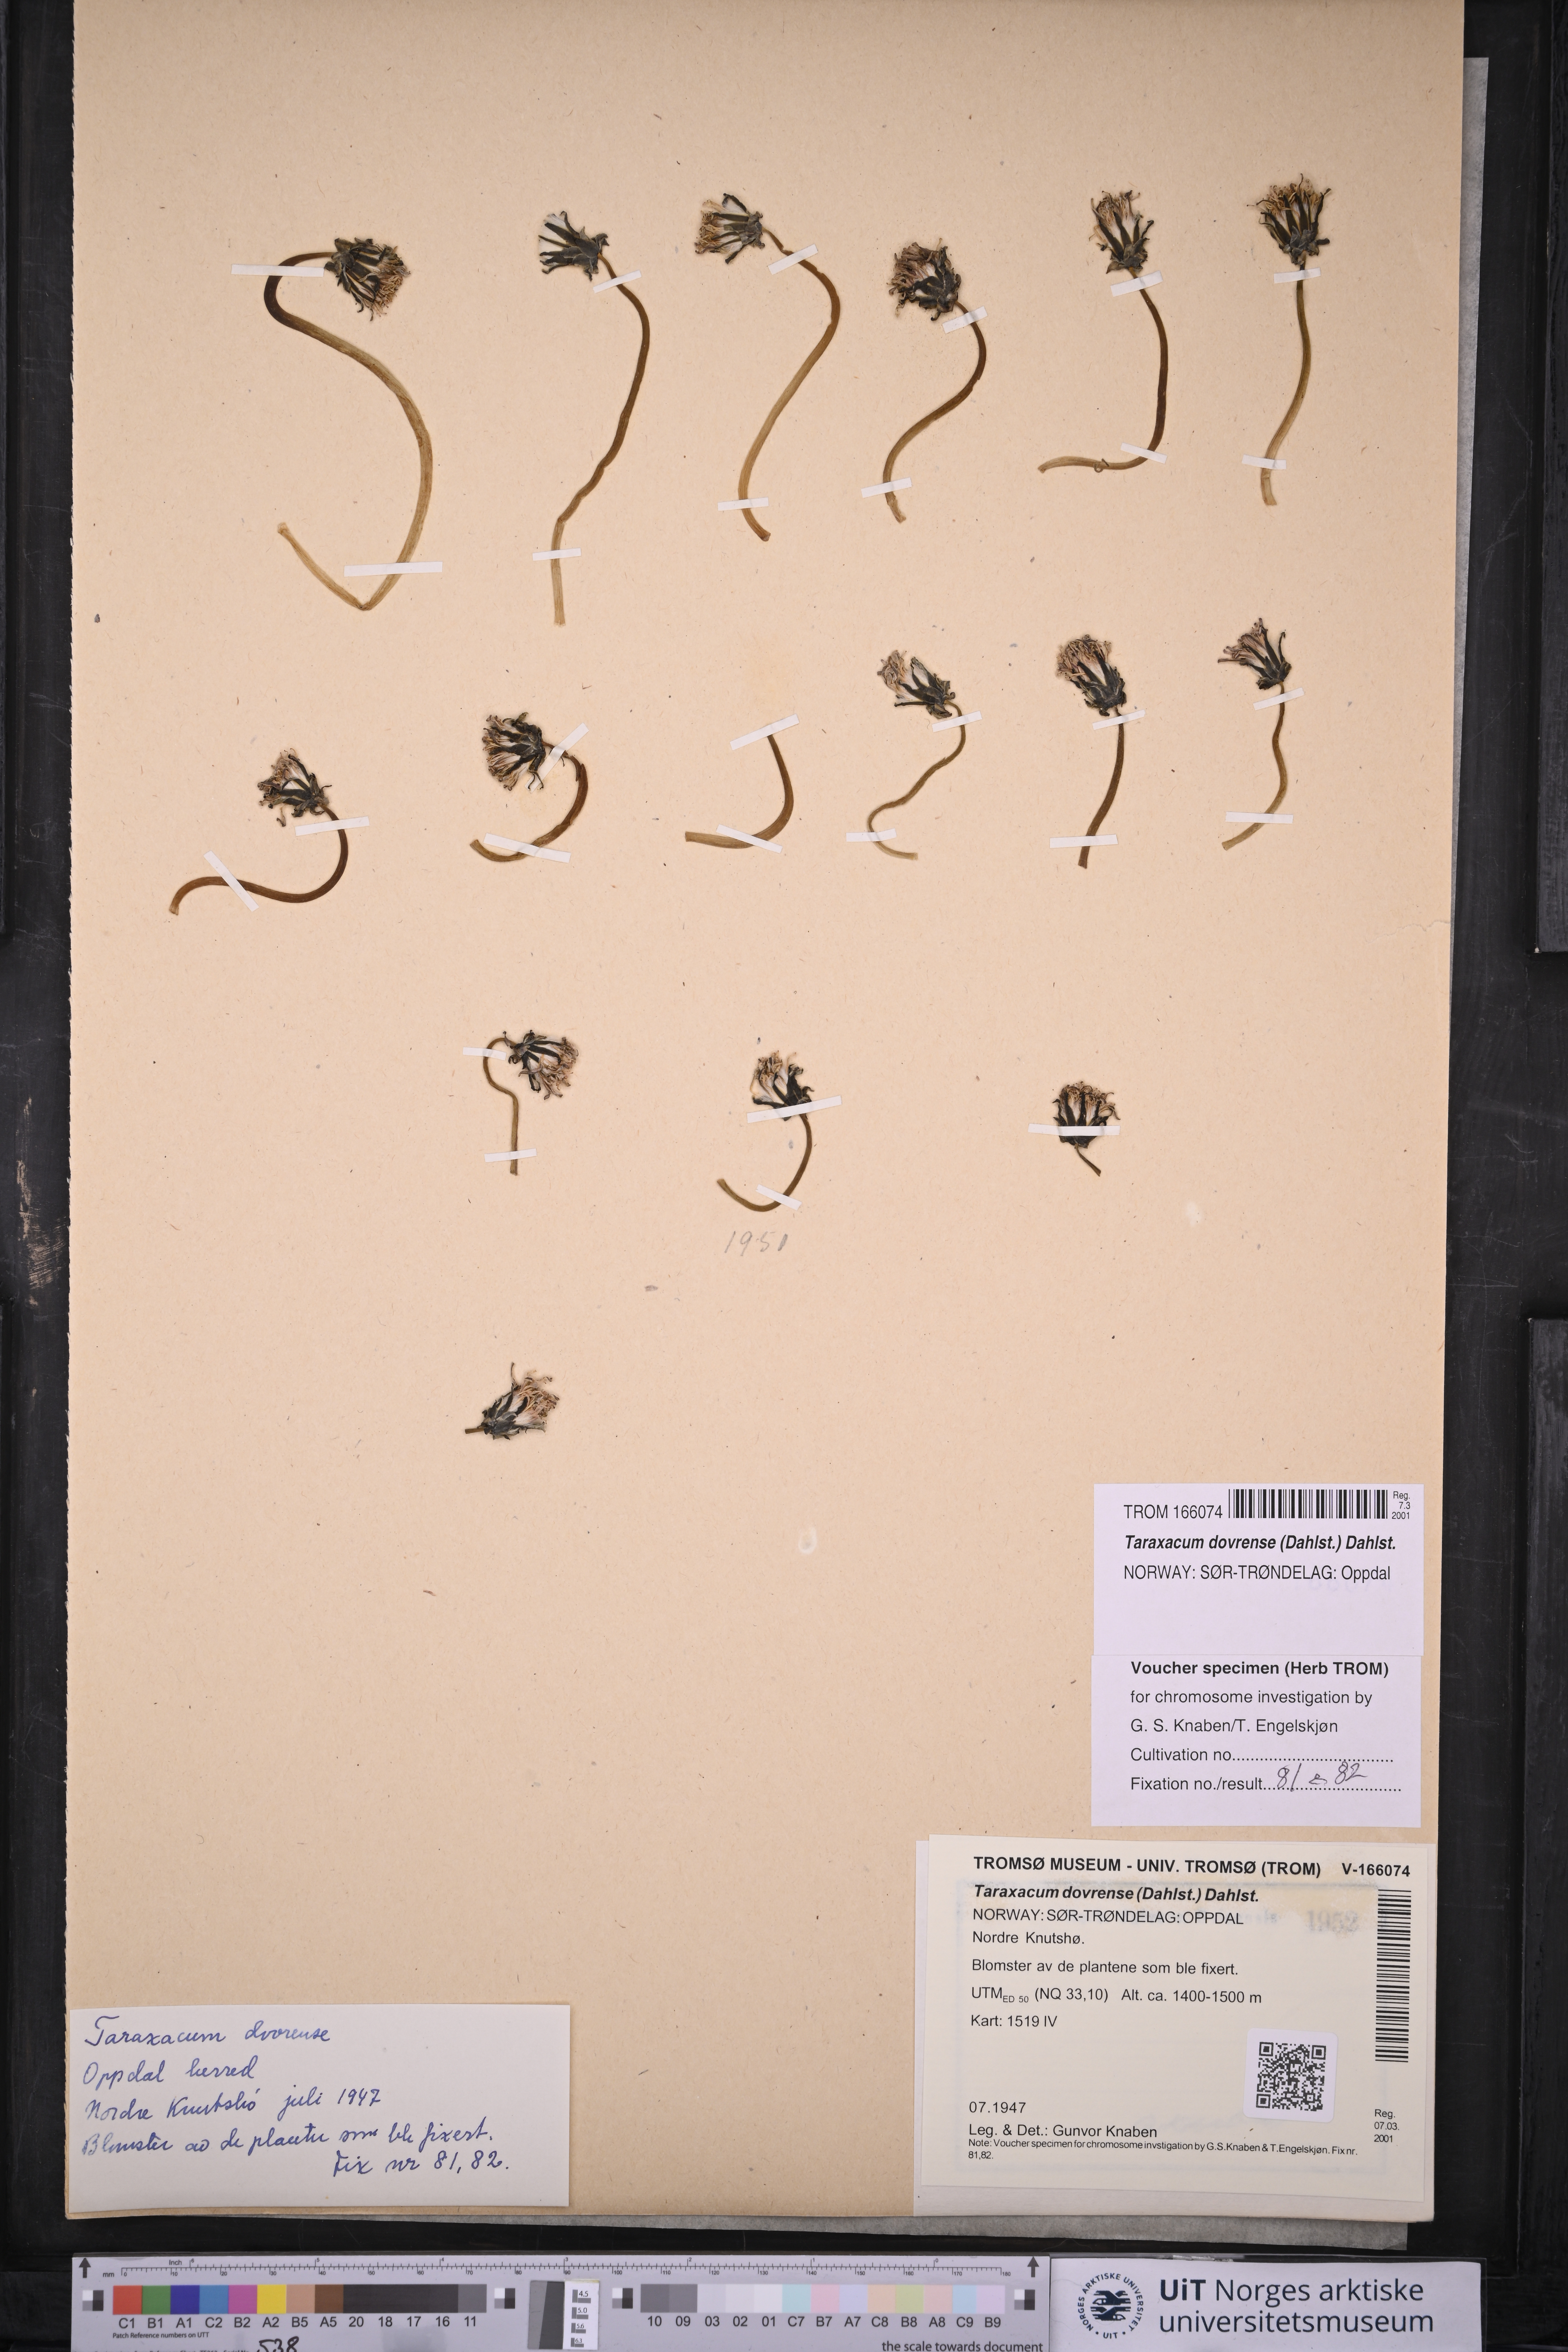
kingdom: Plantae
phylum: Tracheophyta
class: Magnoliopsida
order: Asterales
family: Asteraceae
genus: Taraxacum
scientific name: Taraxacum dovrense
